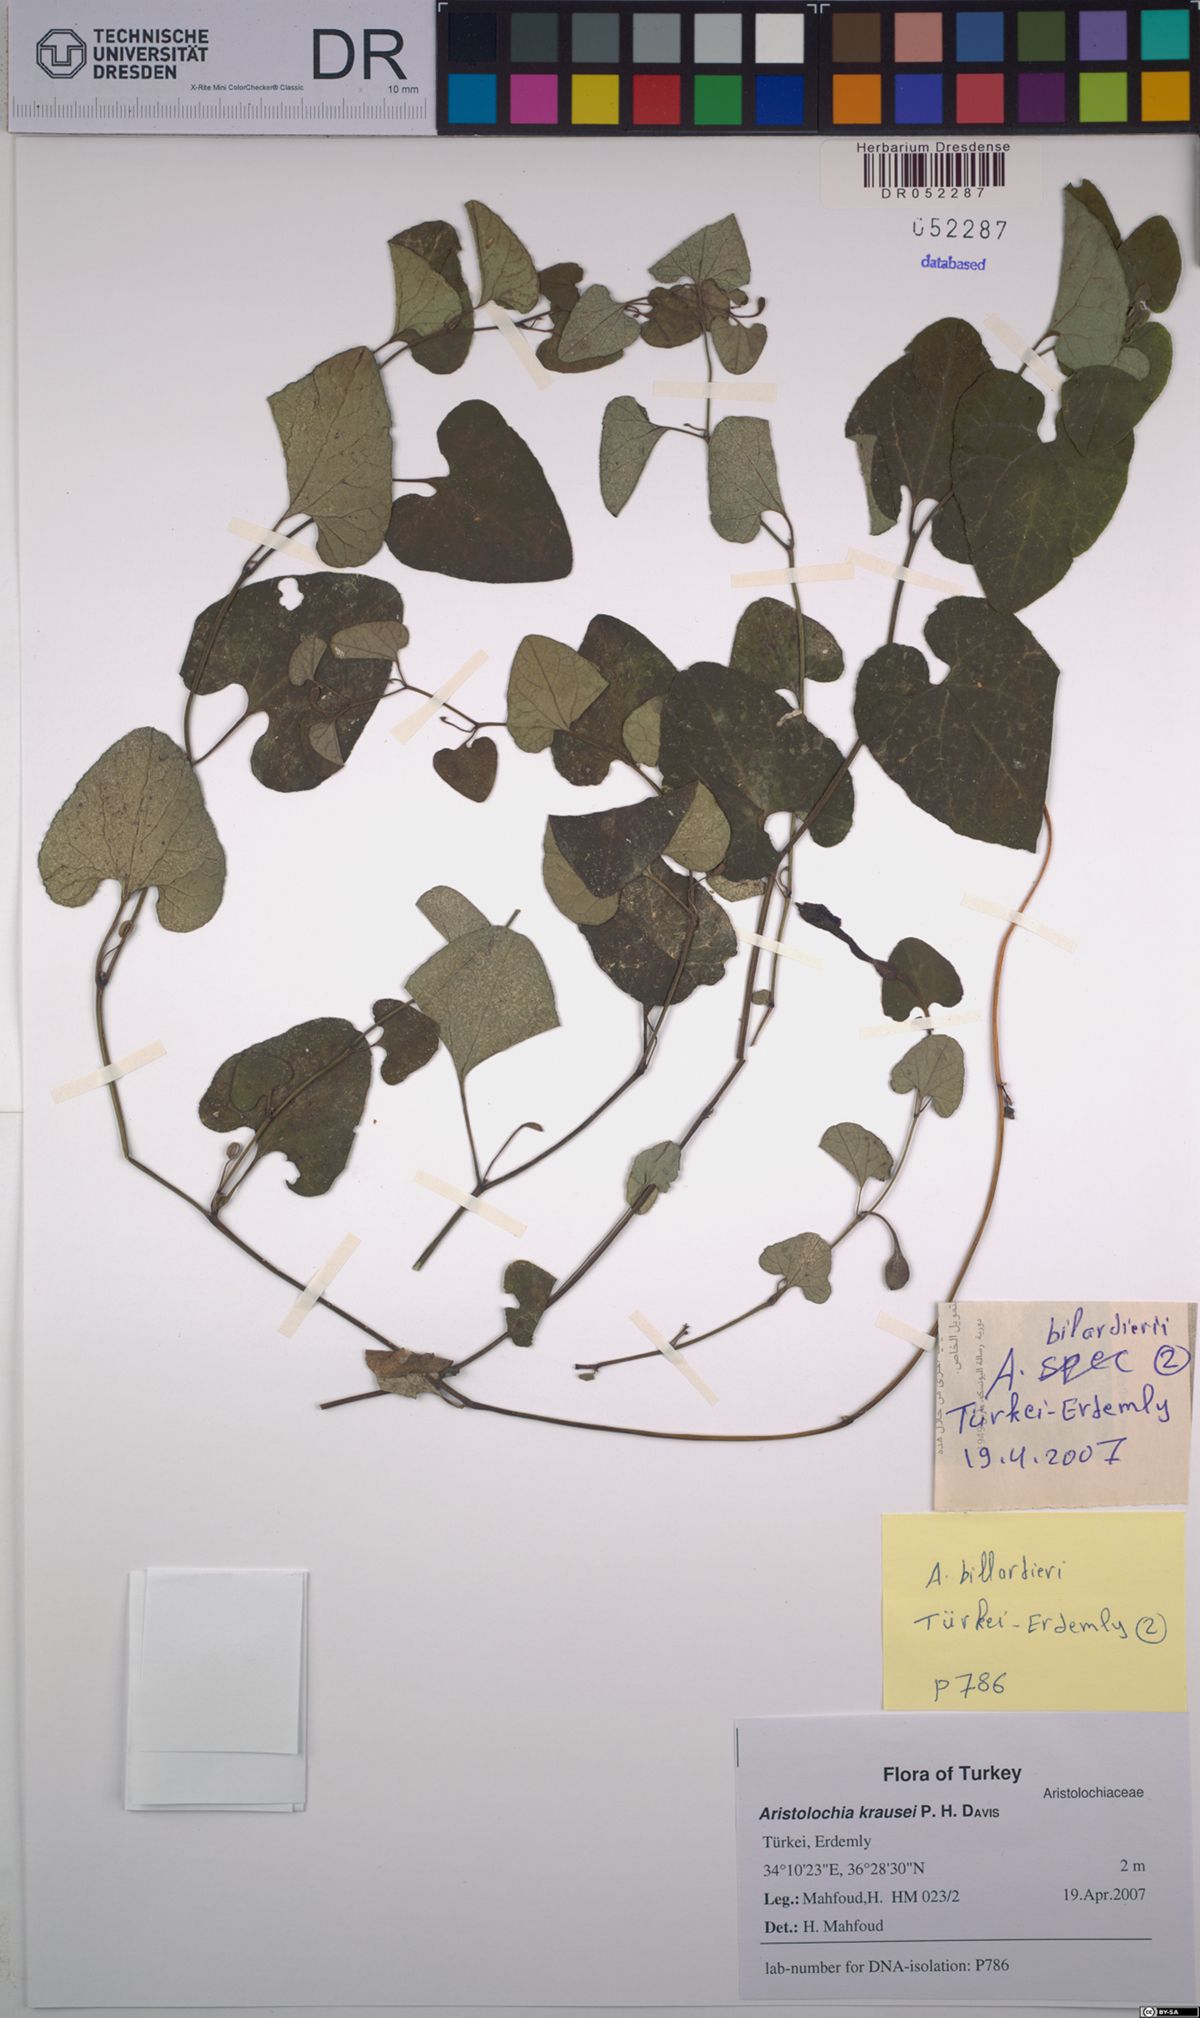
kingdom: Plantae
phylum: Tracheophyta
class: Magnoliopsida
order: Piperales
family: Aristolochiaceae
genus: Aristolochia
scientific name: Aristolochia krausei
